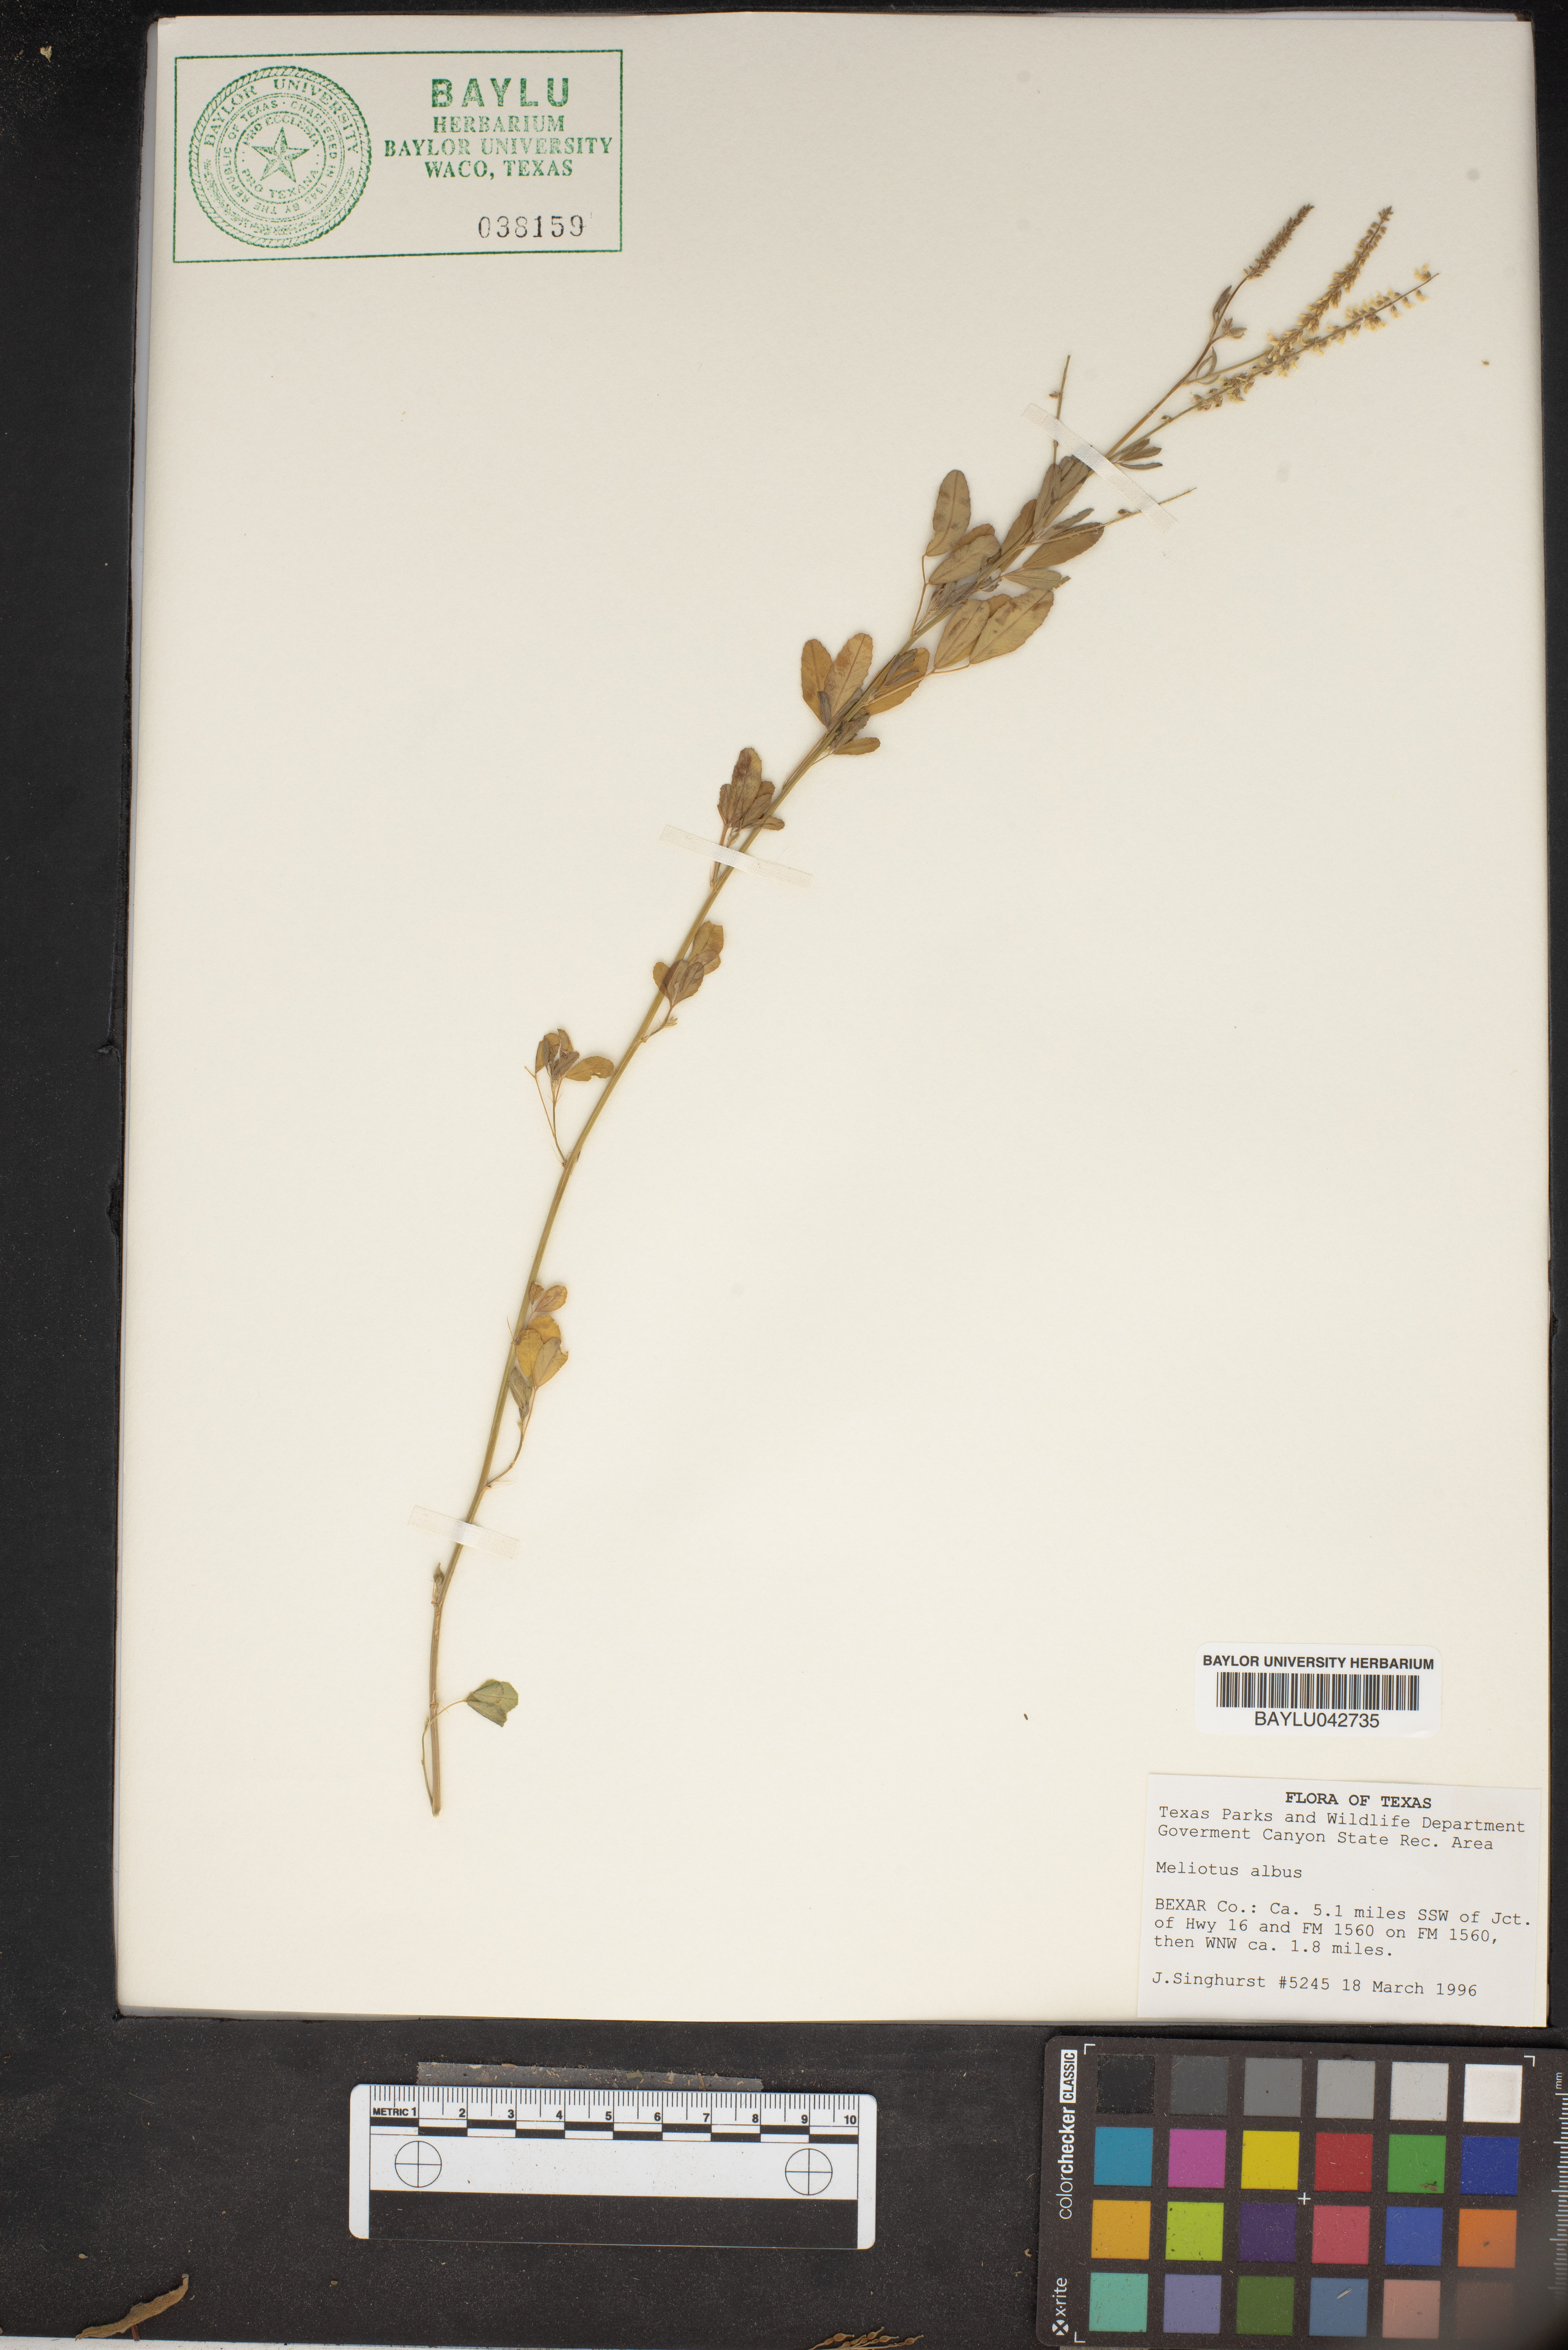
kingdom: Plantae
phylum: Tracheophyta
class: Magnoliopsida
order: Fabales
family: Fabaceae
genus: Melilotus
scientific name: Melilotus albus
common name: White melilot
